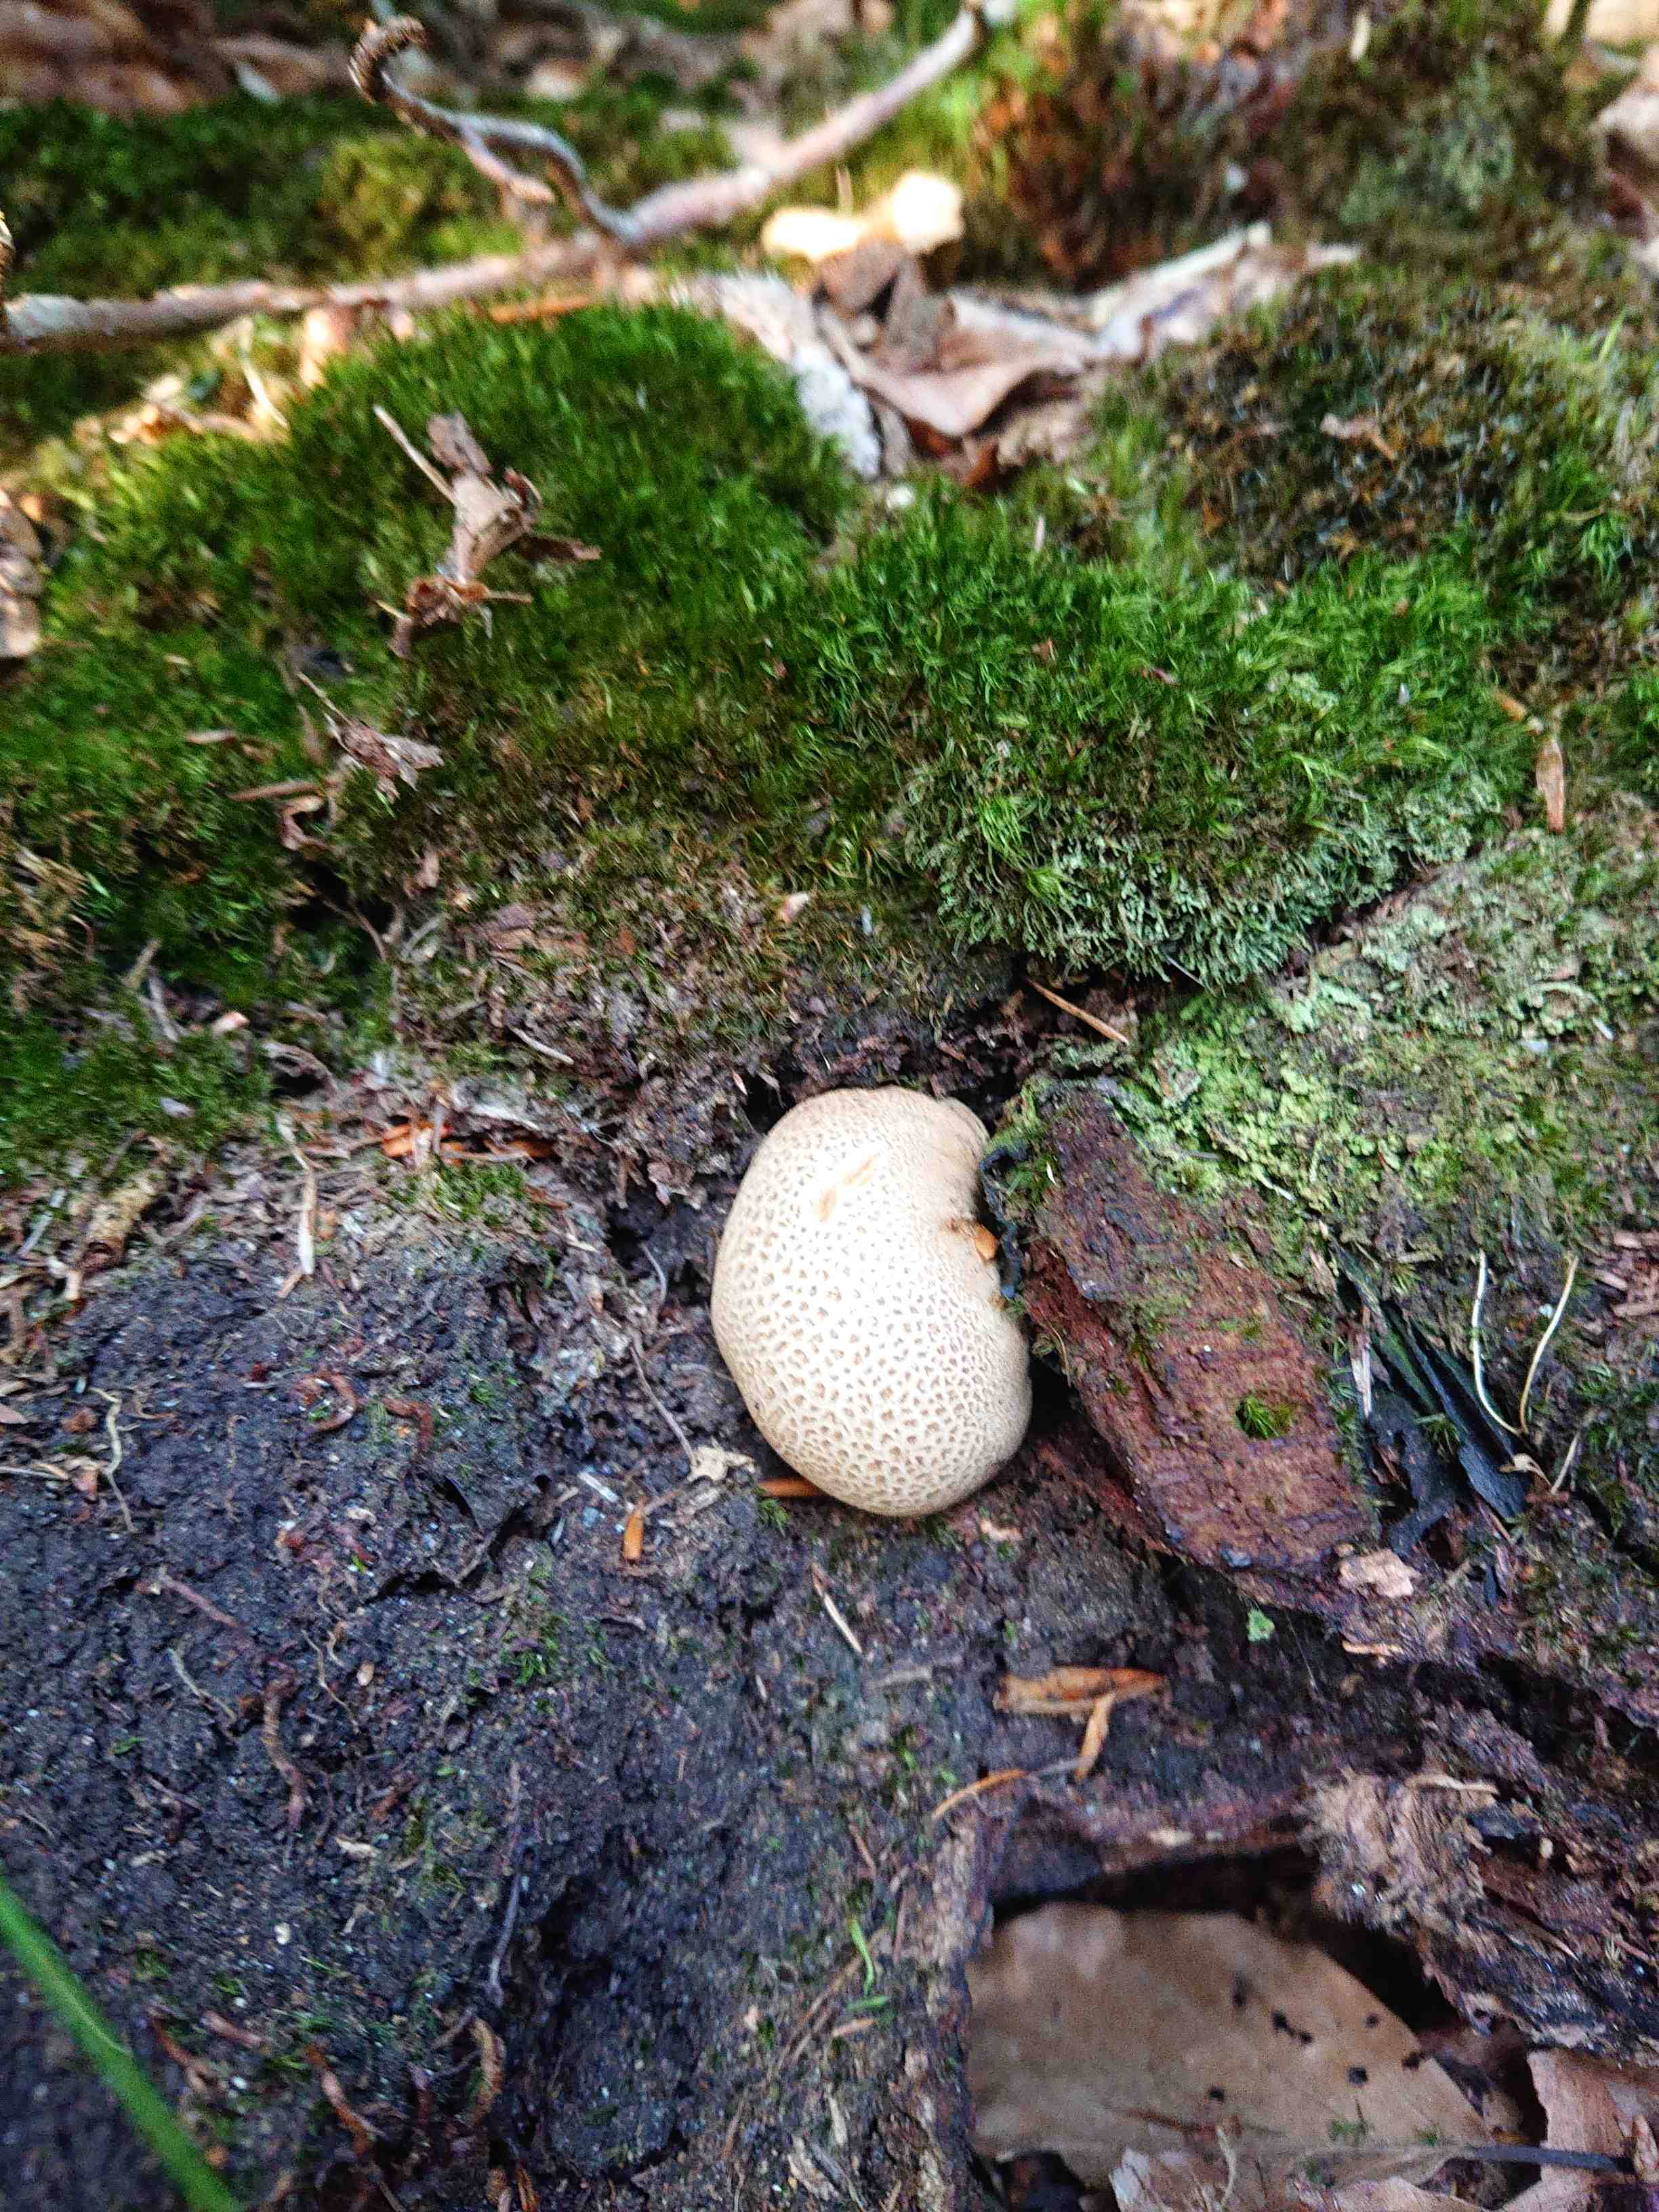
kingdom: Fungi
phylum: Basidiomycota
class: Agaricomycetes
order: Boletales
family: Sclerodermataceae
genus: Scleroderma
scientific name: Scleroderma citrinum
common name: almindelig bruskbold
